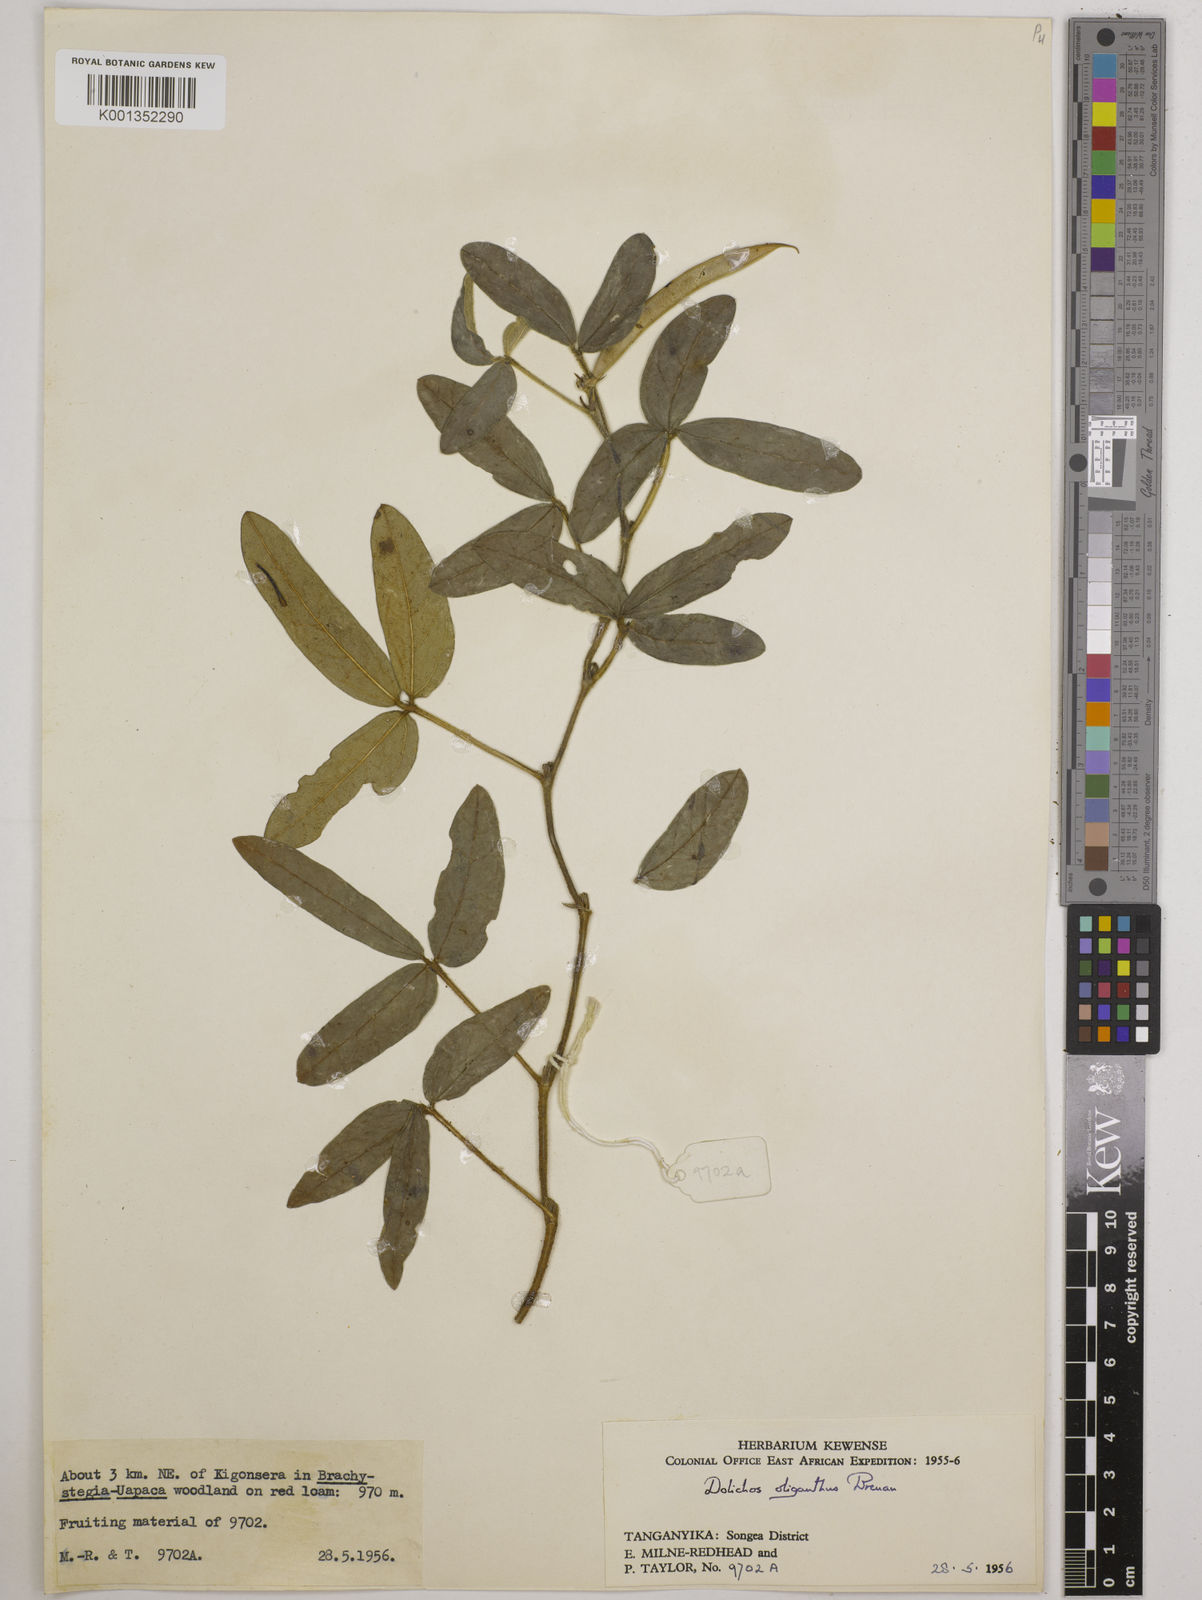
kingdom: Plantae
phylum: Tracheophyta
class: Magnoliopsida
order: Fabales
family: Fabaceae
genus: Macrotyloma
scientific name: Macrotyloma oliganthum
